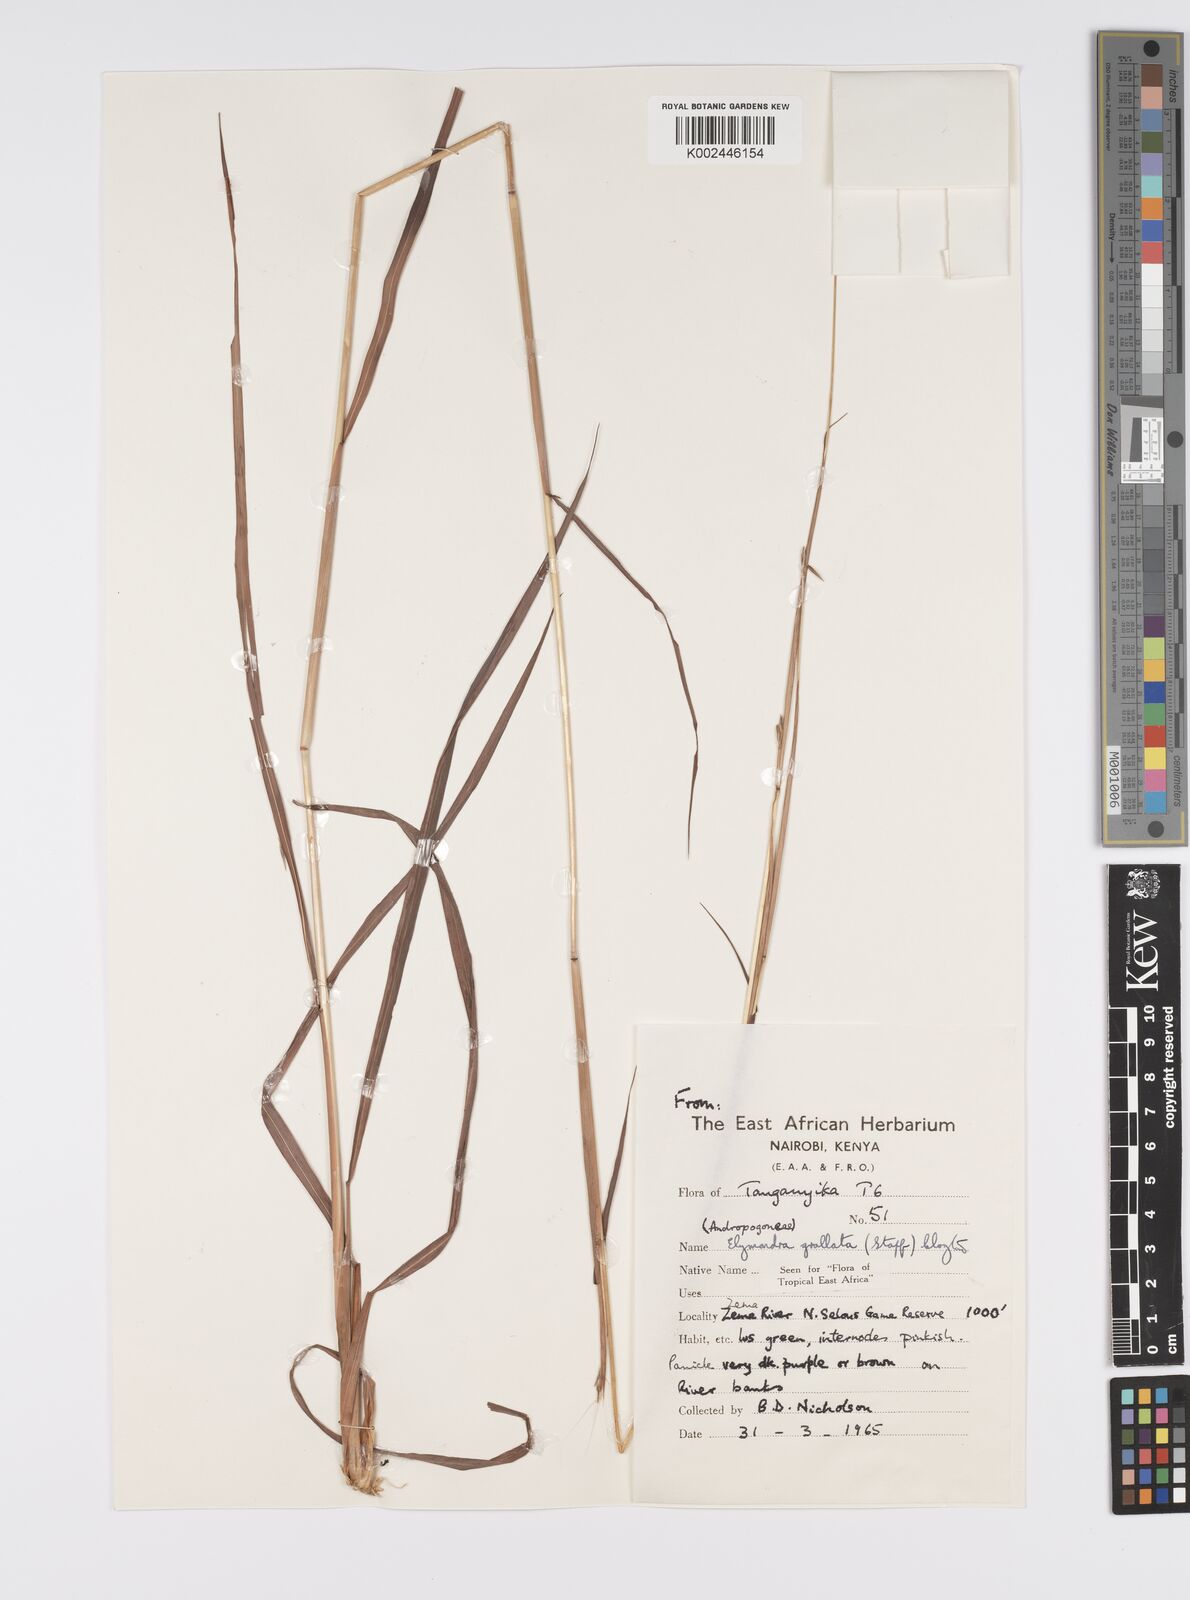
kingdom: Plantae
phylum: Tracheophyta
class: Liliopsida
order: Poales
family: Poaceae
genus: Elymandra
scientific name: Elymandra grallata
